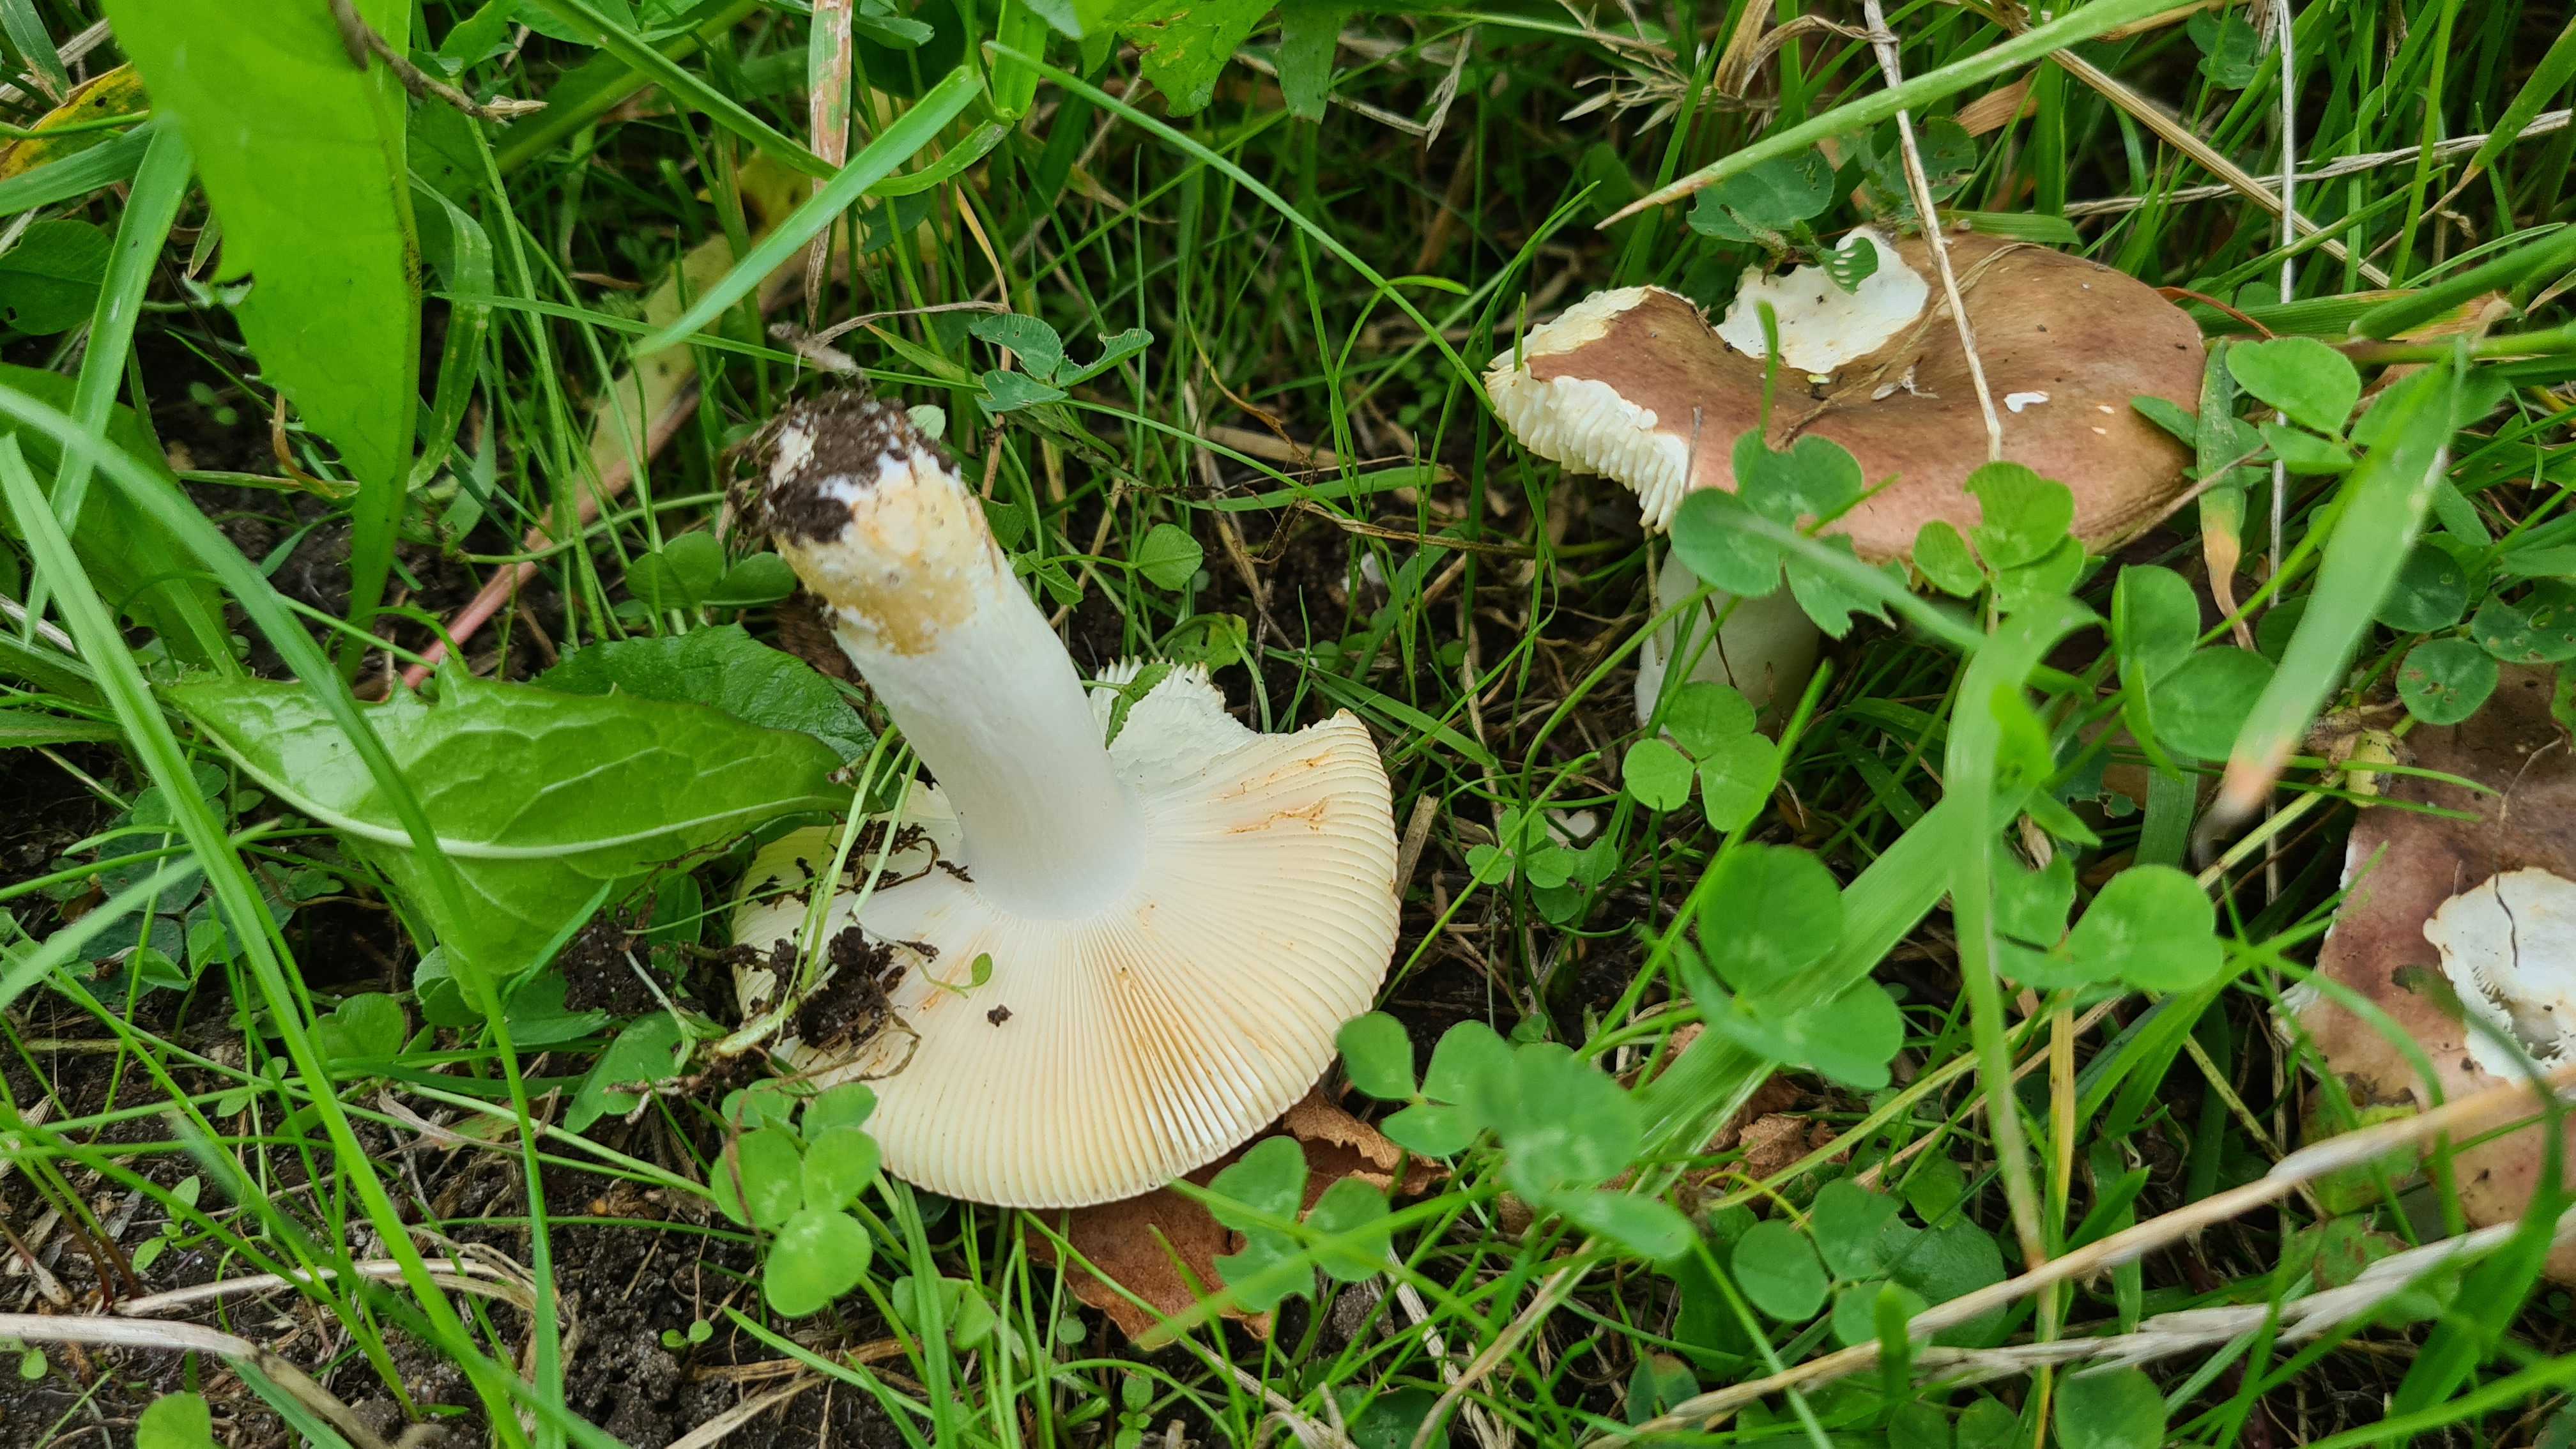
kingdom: Fungi
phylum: Basidiomycota
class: Agaricomycetes
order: Russulales
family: Russulaceae
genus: Russula
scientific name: Russula versicolor
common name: foranderlig skørhat
